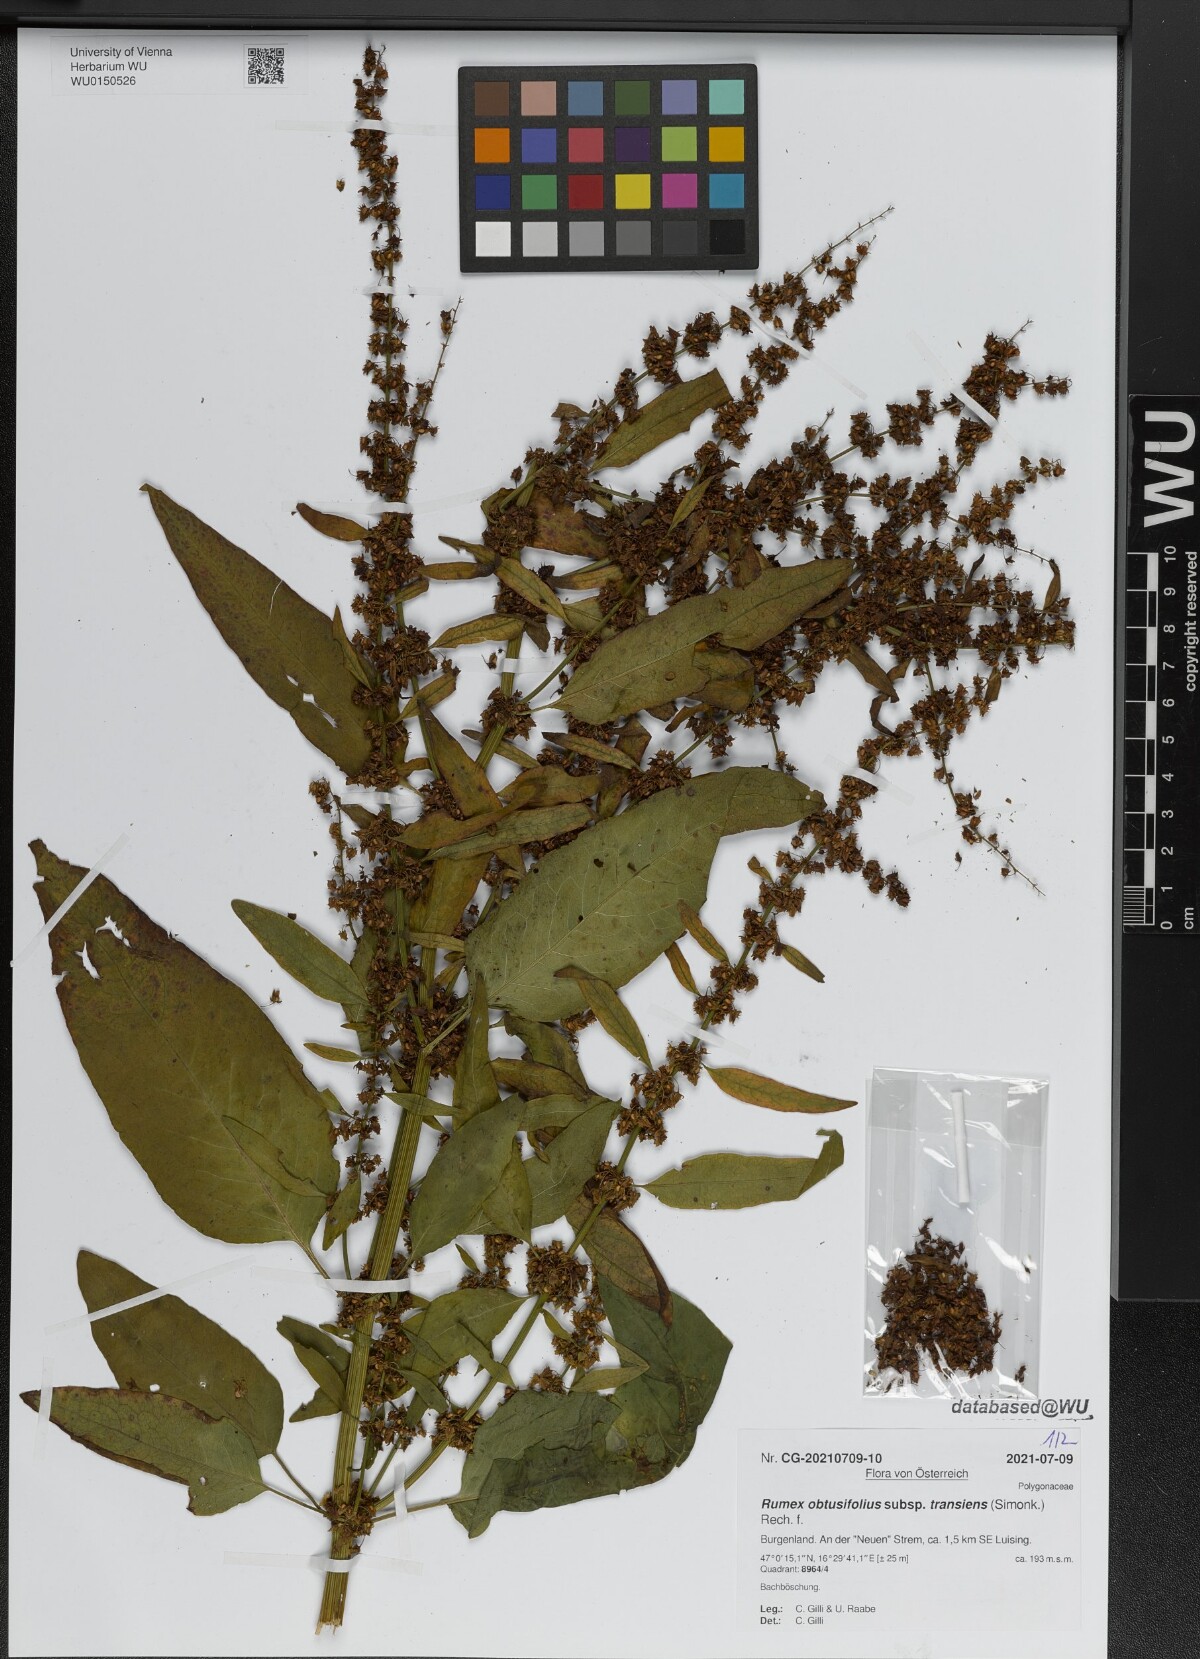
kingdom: Plantae
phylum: Tracheophyta
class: Magnoliopsida
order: Caryophyllales
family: Polygonaceae
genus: Rumex
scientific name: Rumex obtusifolius
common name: Bitter dock
